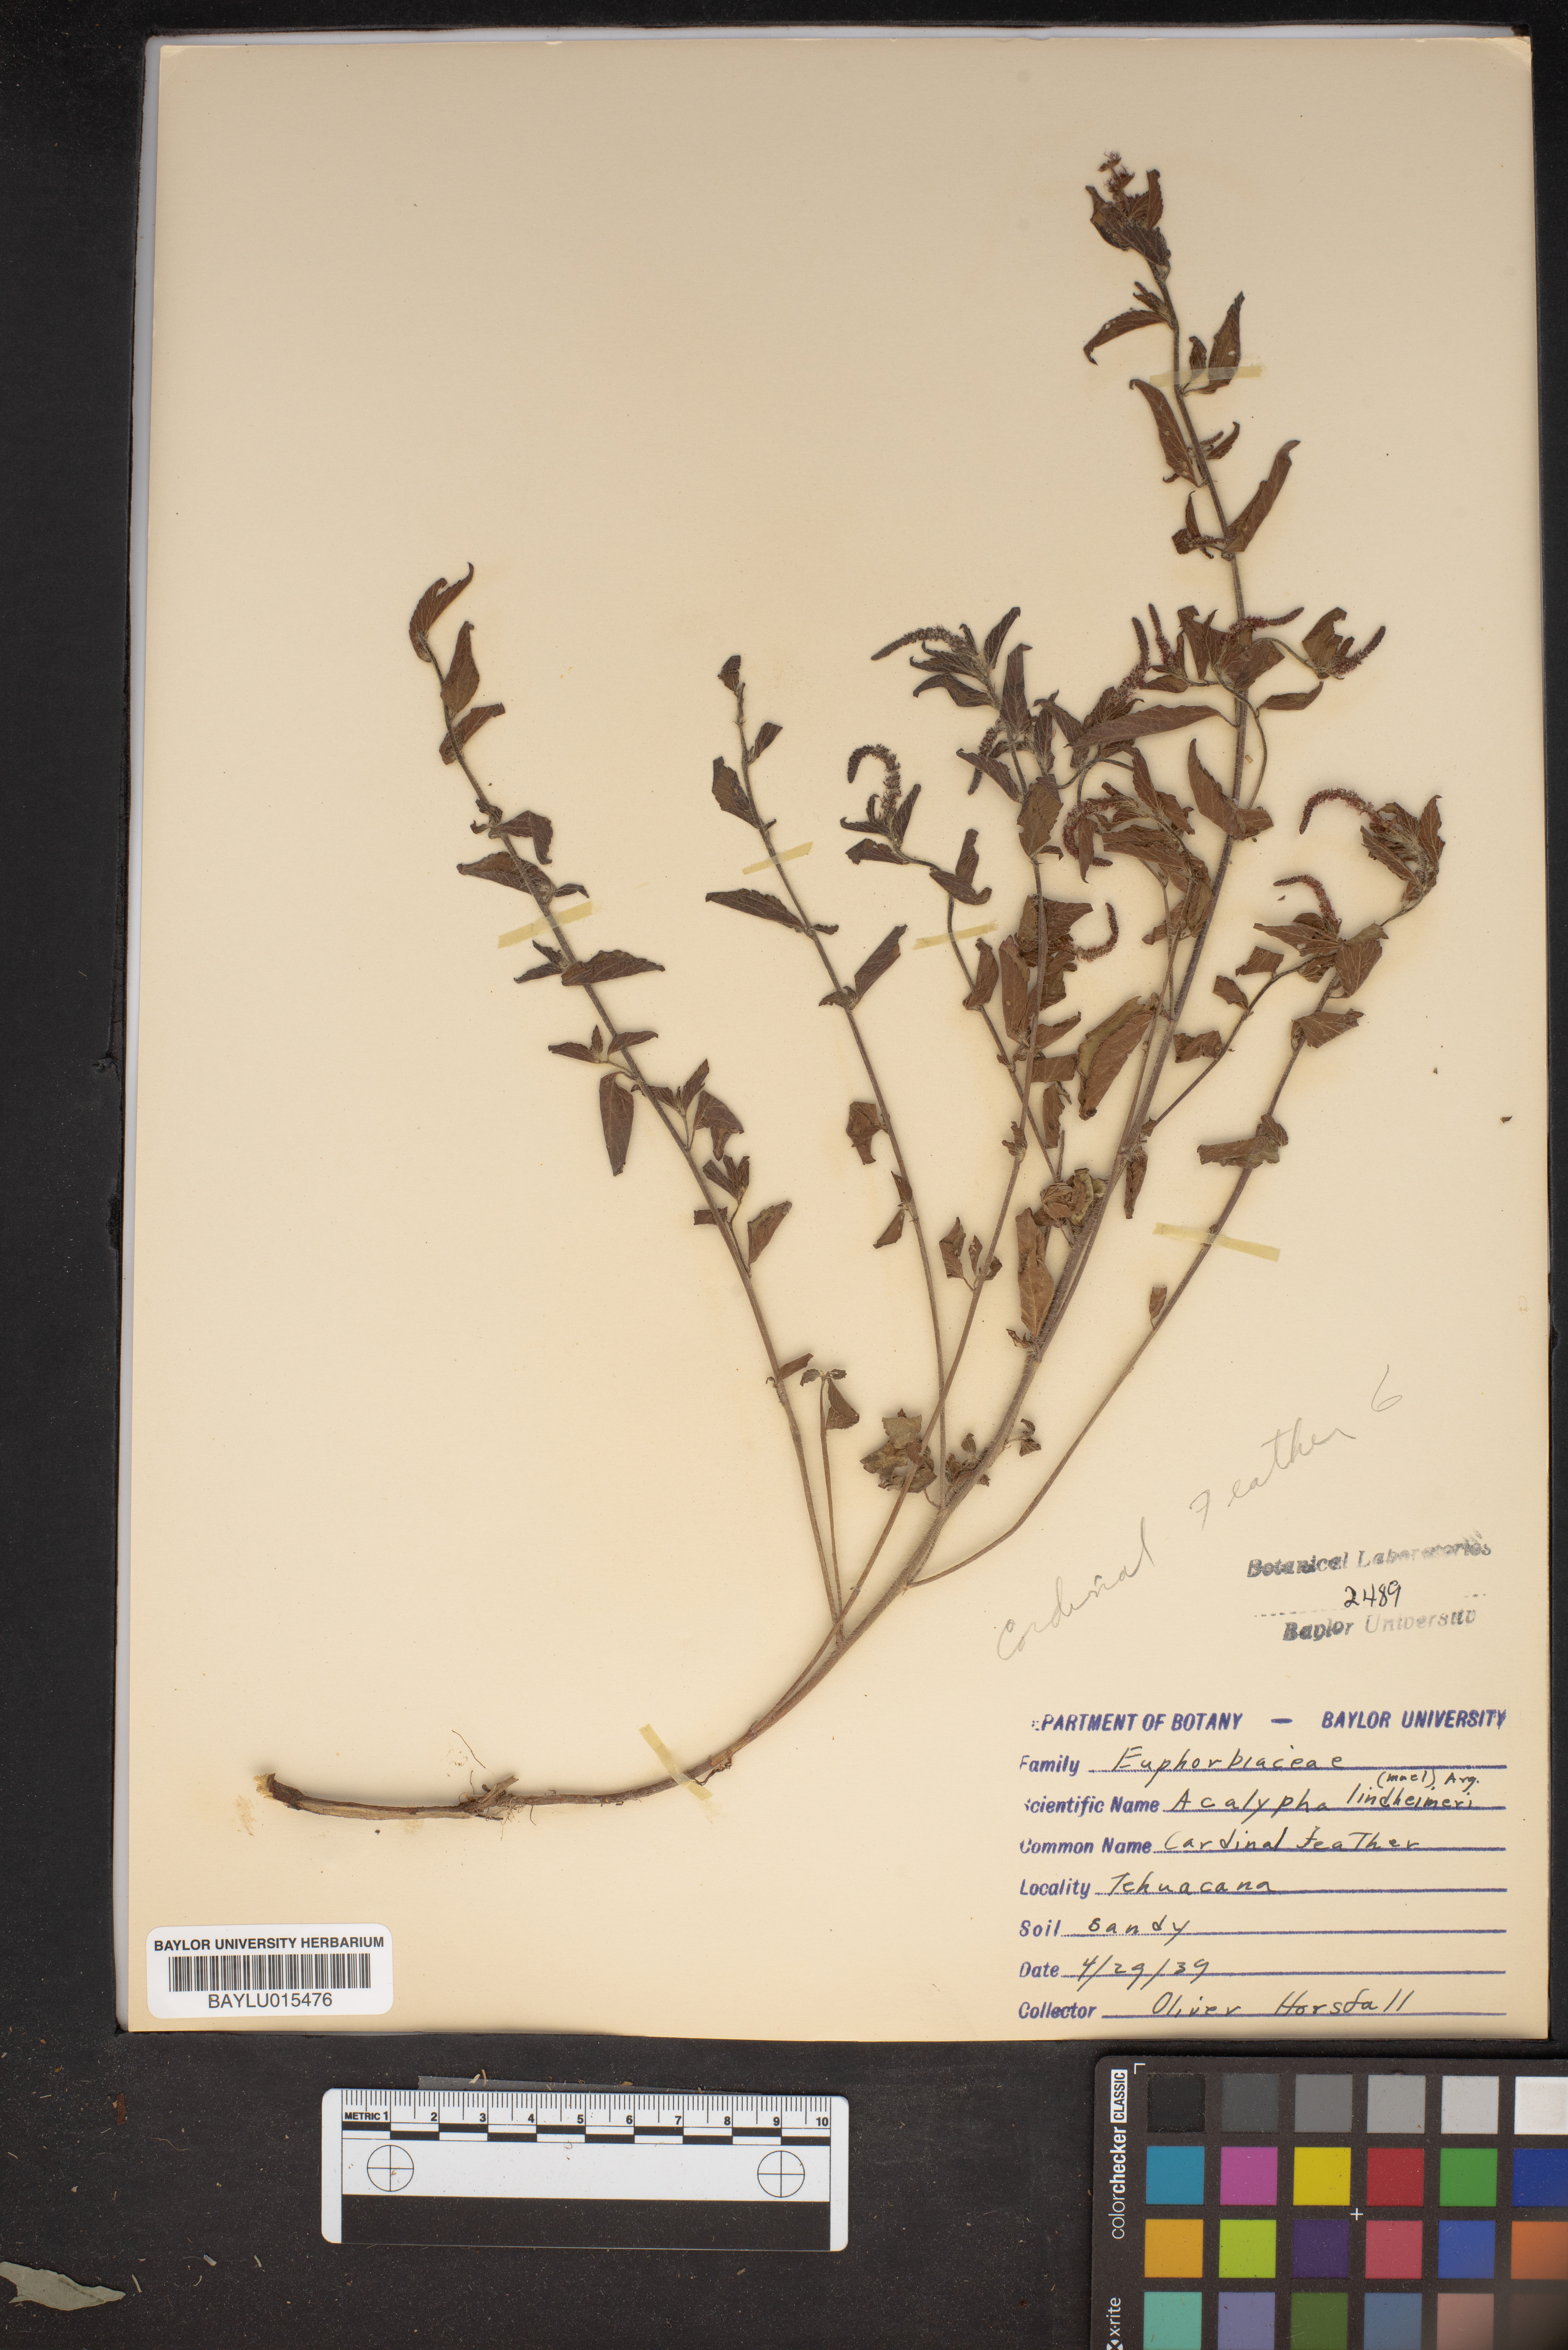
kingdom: Plantae
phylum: Tracheophyta
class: Magnoliopsida
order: Malpighiales
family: Euphorbiaceae
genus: Acalypha
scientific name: Acalypha phleoides
